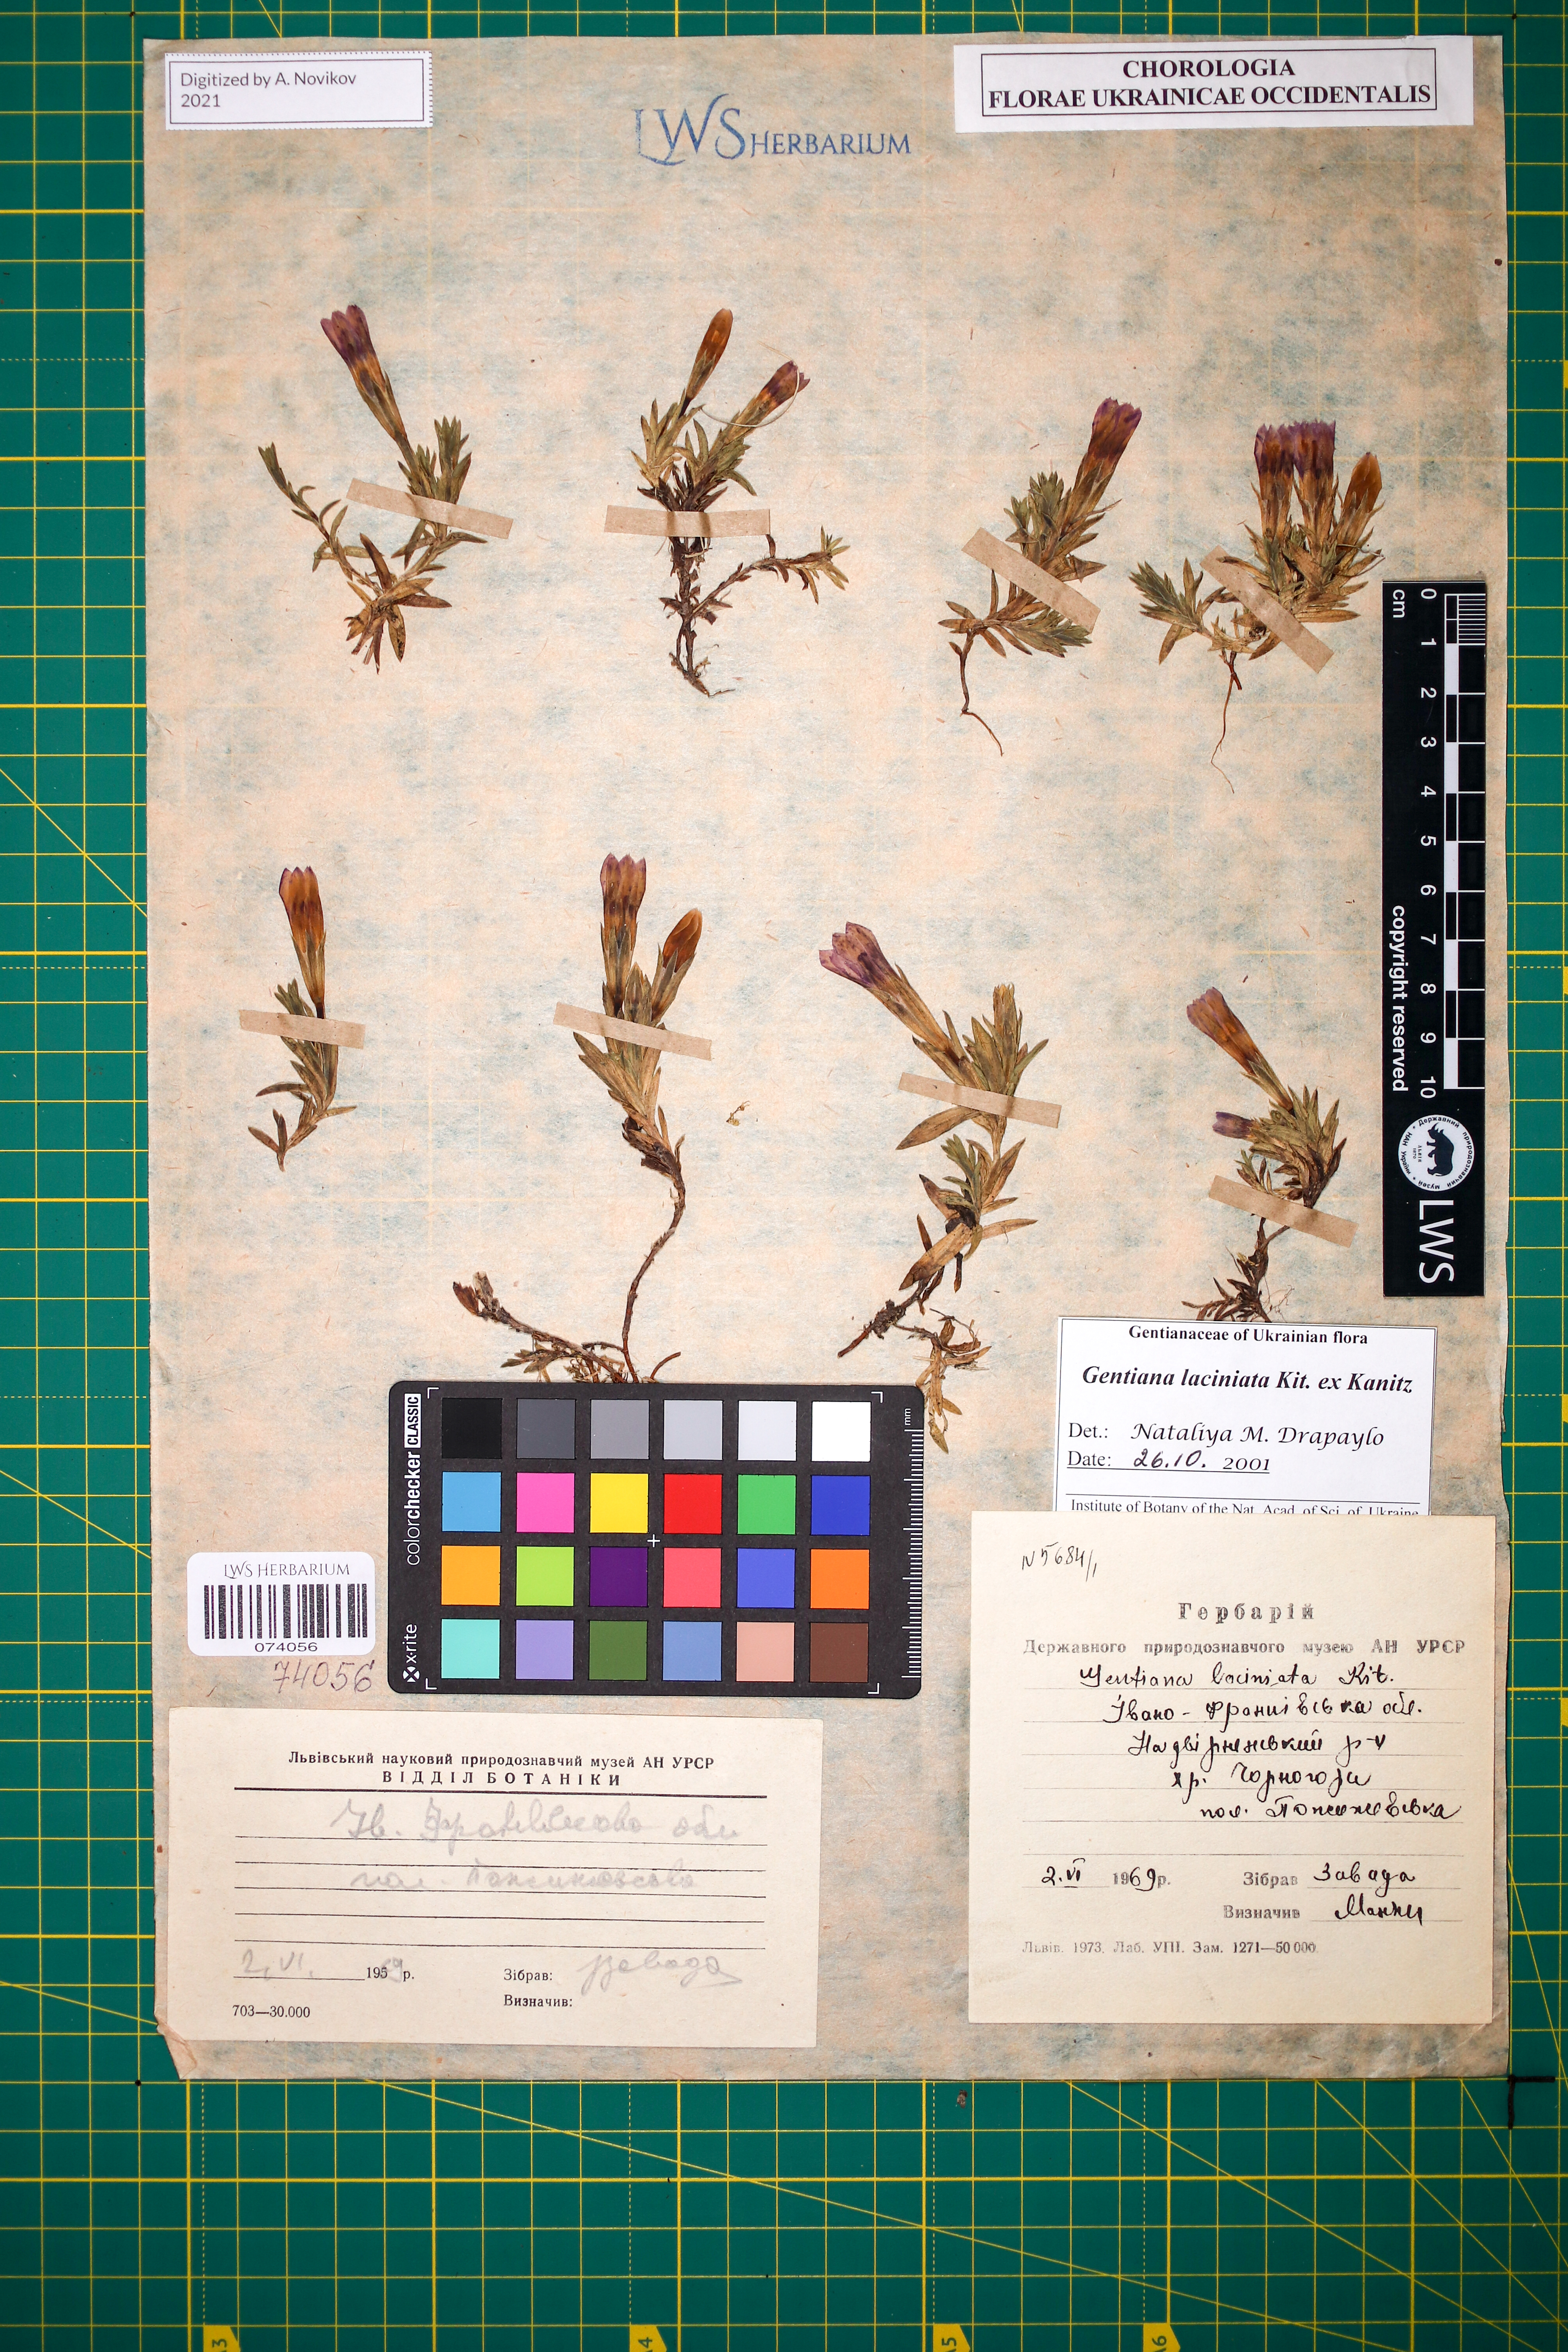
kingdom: Plantae
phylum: Tracheophyta
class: Magnoliopsida
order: Gentianales
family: Gentianaceae
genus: Gentiana
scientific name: Gentiana laciniata
